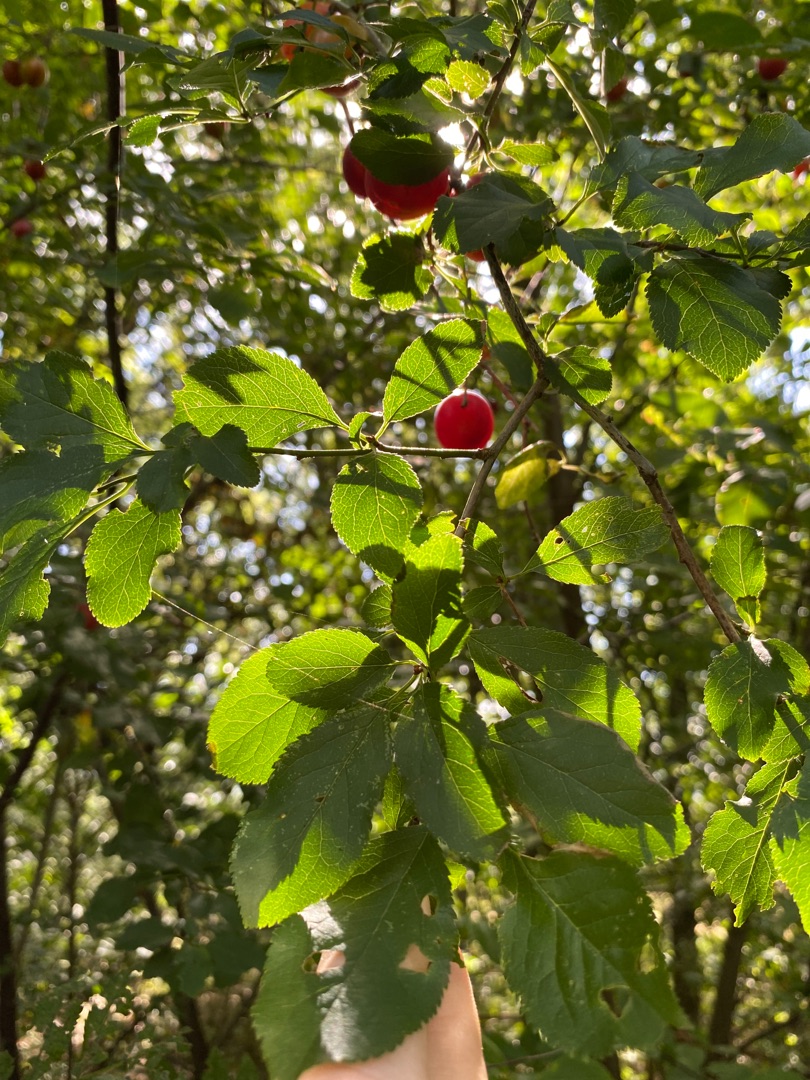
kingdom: Plantae
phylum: Tracheophyta
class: Magnoliopsida
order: Rosales
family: Rosaceae
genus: Prunus
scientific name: Prunus cerasifera
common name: Mirabel
